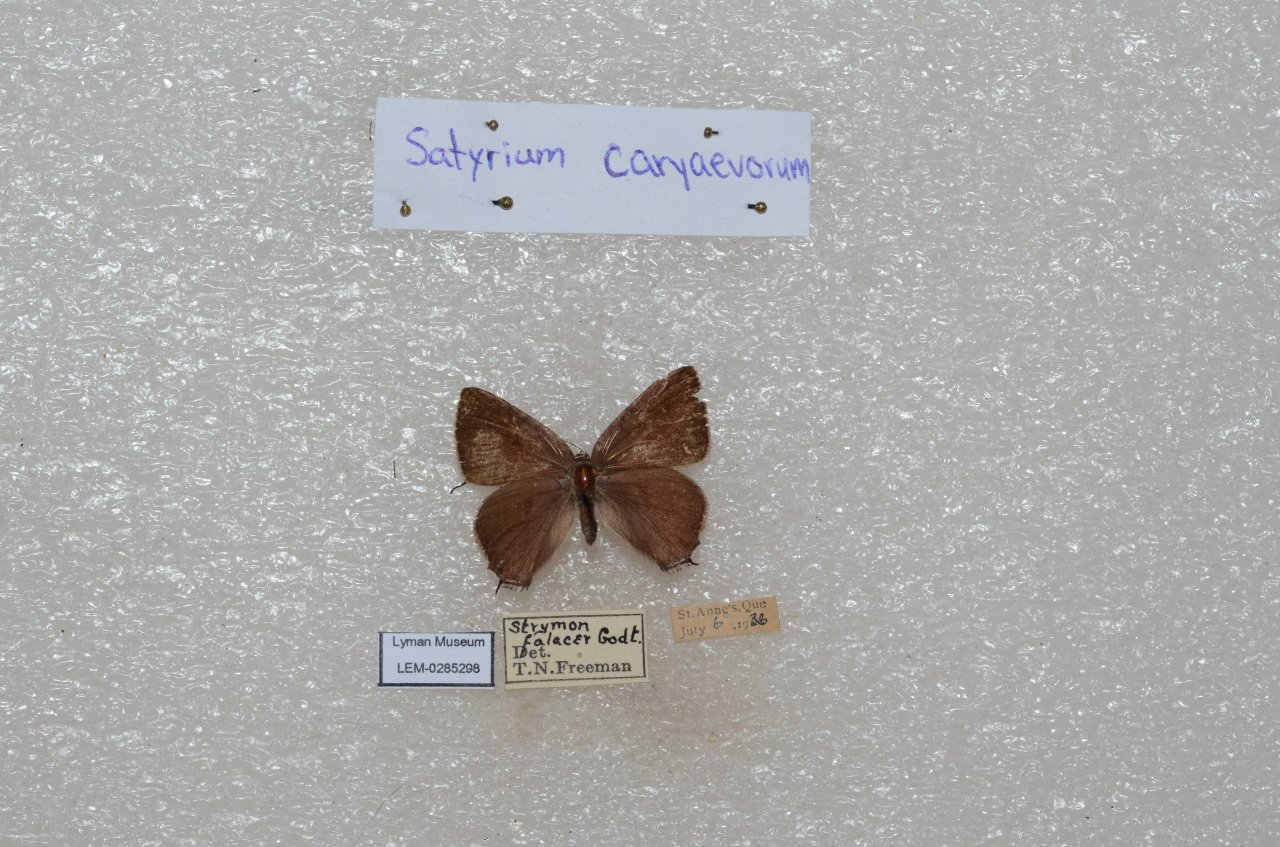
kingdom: Animalia
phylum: Arthropoda
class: Insecta
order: Lepidoptera
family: Lycaenidae
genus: Strymon
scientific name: Strymon caryaevorus
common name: Hickory Hairstreak
